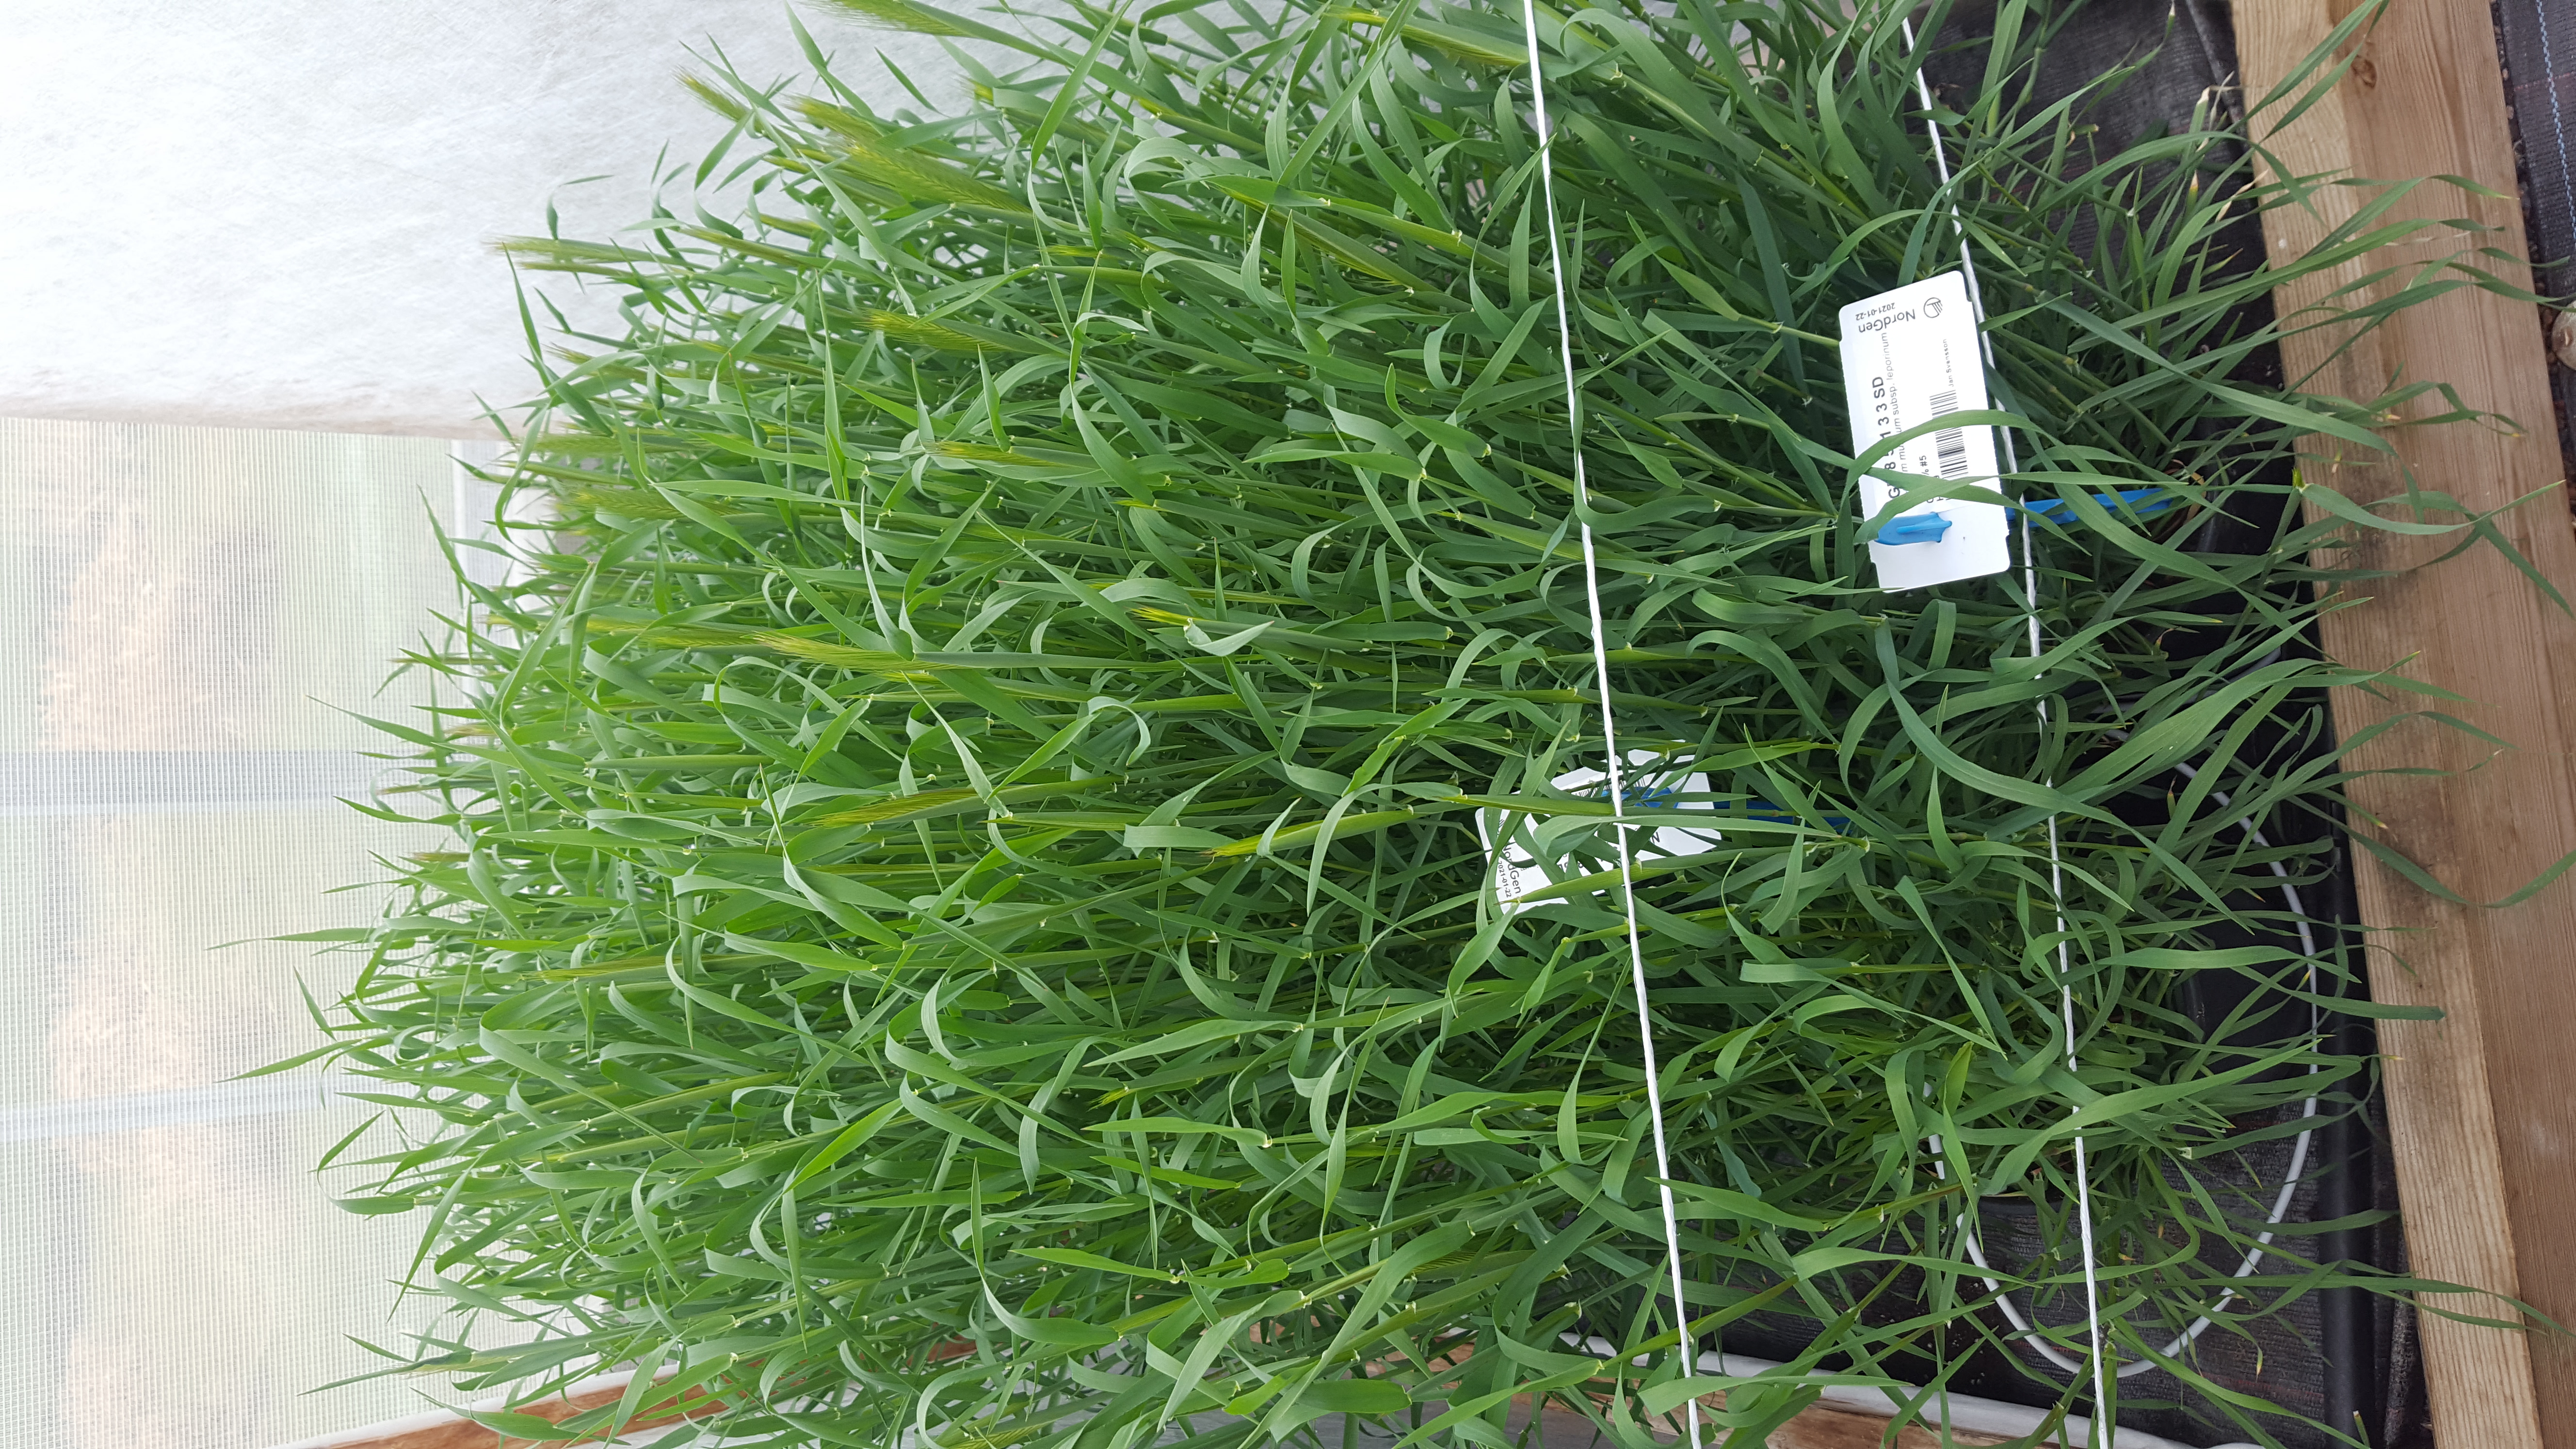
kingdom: Plantae
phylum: Tracheophyta
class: Liliopsida
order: Poales
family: Poaceae
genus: Hordeum
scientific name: Hordeum murinum
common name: Wall barley
